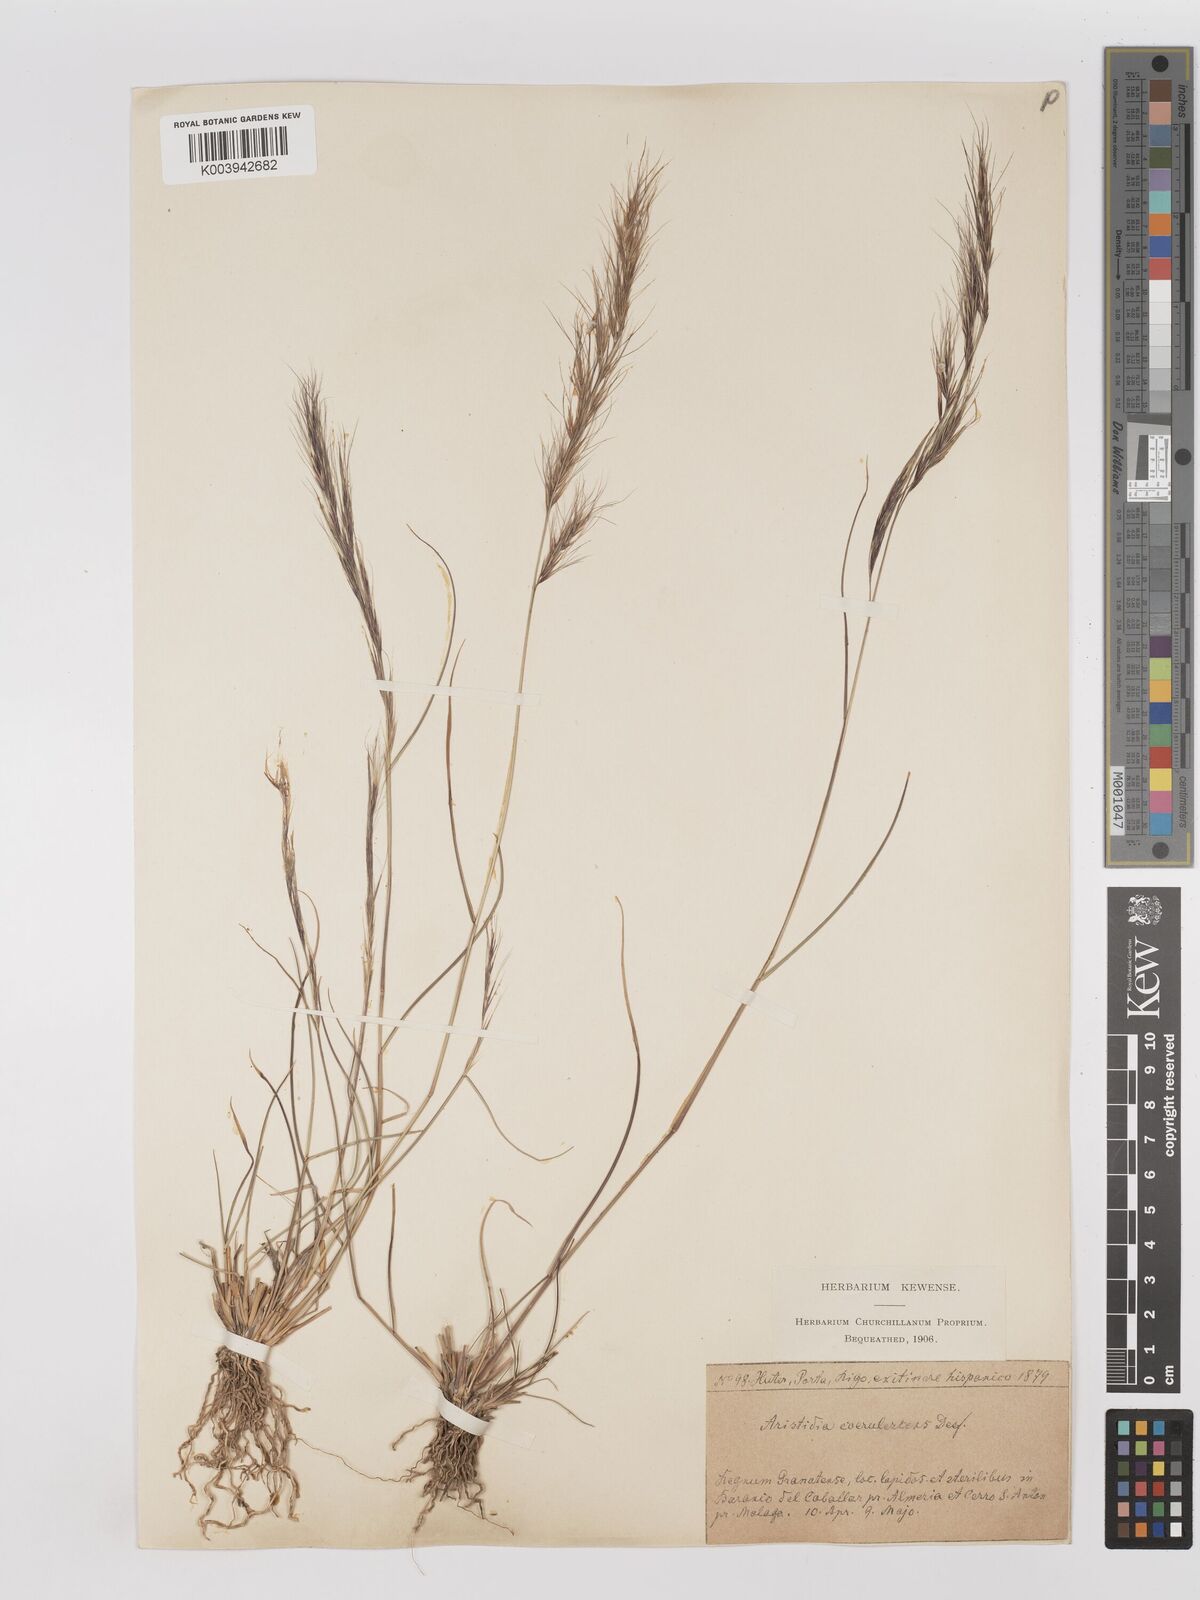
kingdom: Plantae
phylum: Tracheophyta
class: Liliopsida
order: Poales
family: Poaceae
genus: Aristida
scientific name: Aristida adscensionis
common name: Sixweeks threeawn
